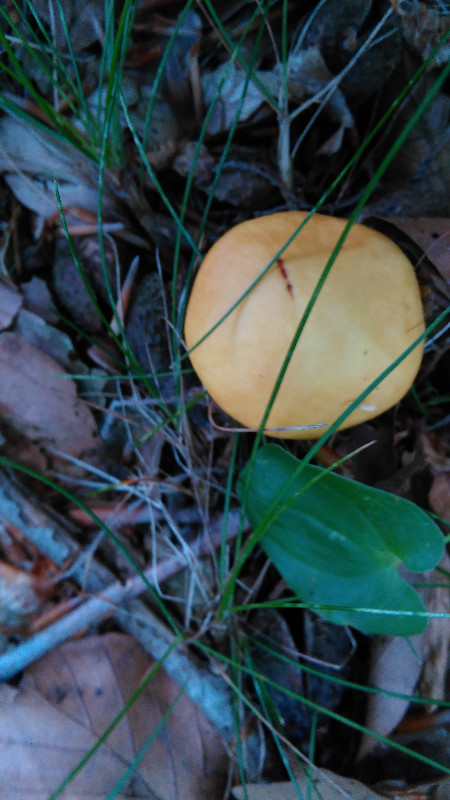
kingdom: Fungi
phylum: Basidiomycota
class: Agaricomycetes
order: Boletales
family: Suillaceae
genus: Suillus
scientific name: Suillus grevillei
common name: lærke-slimrørhat
